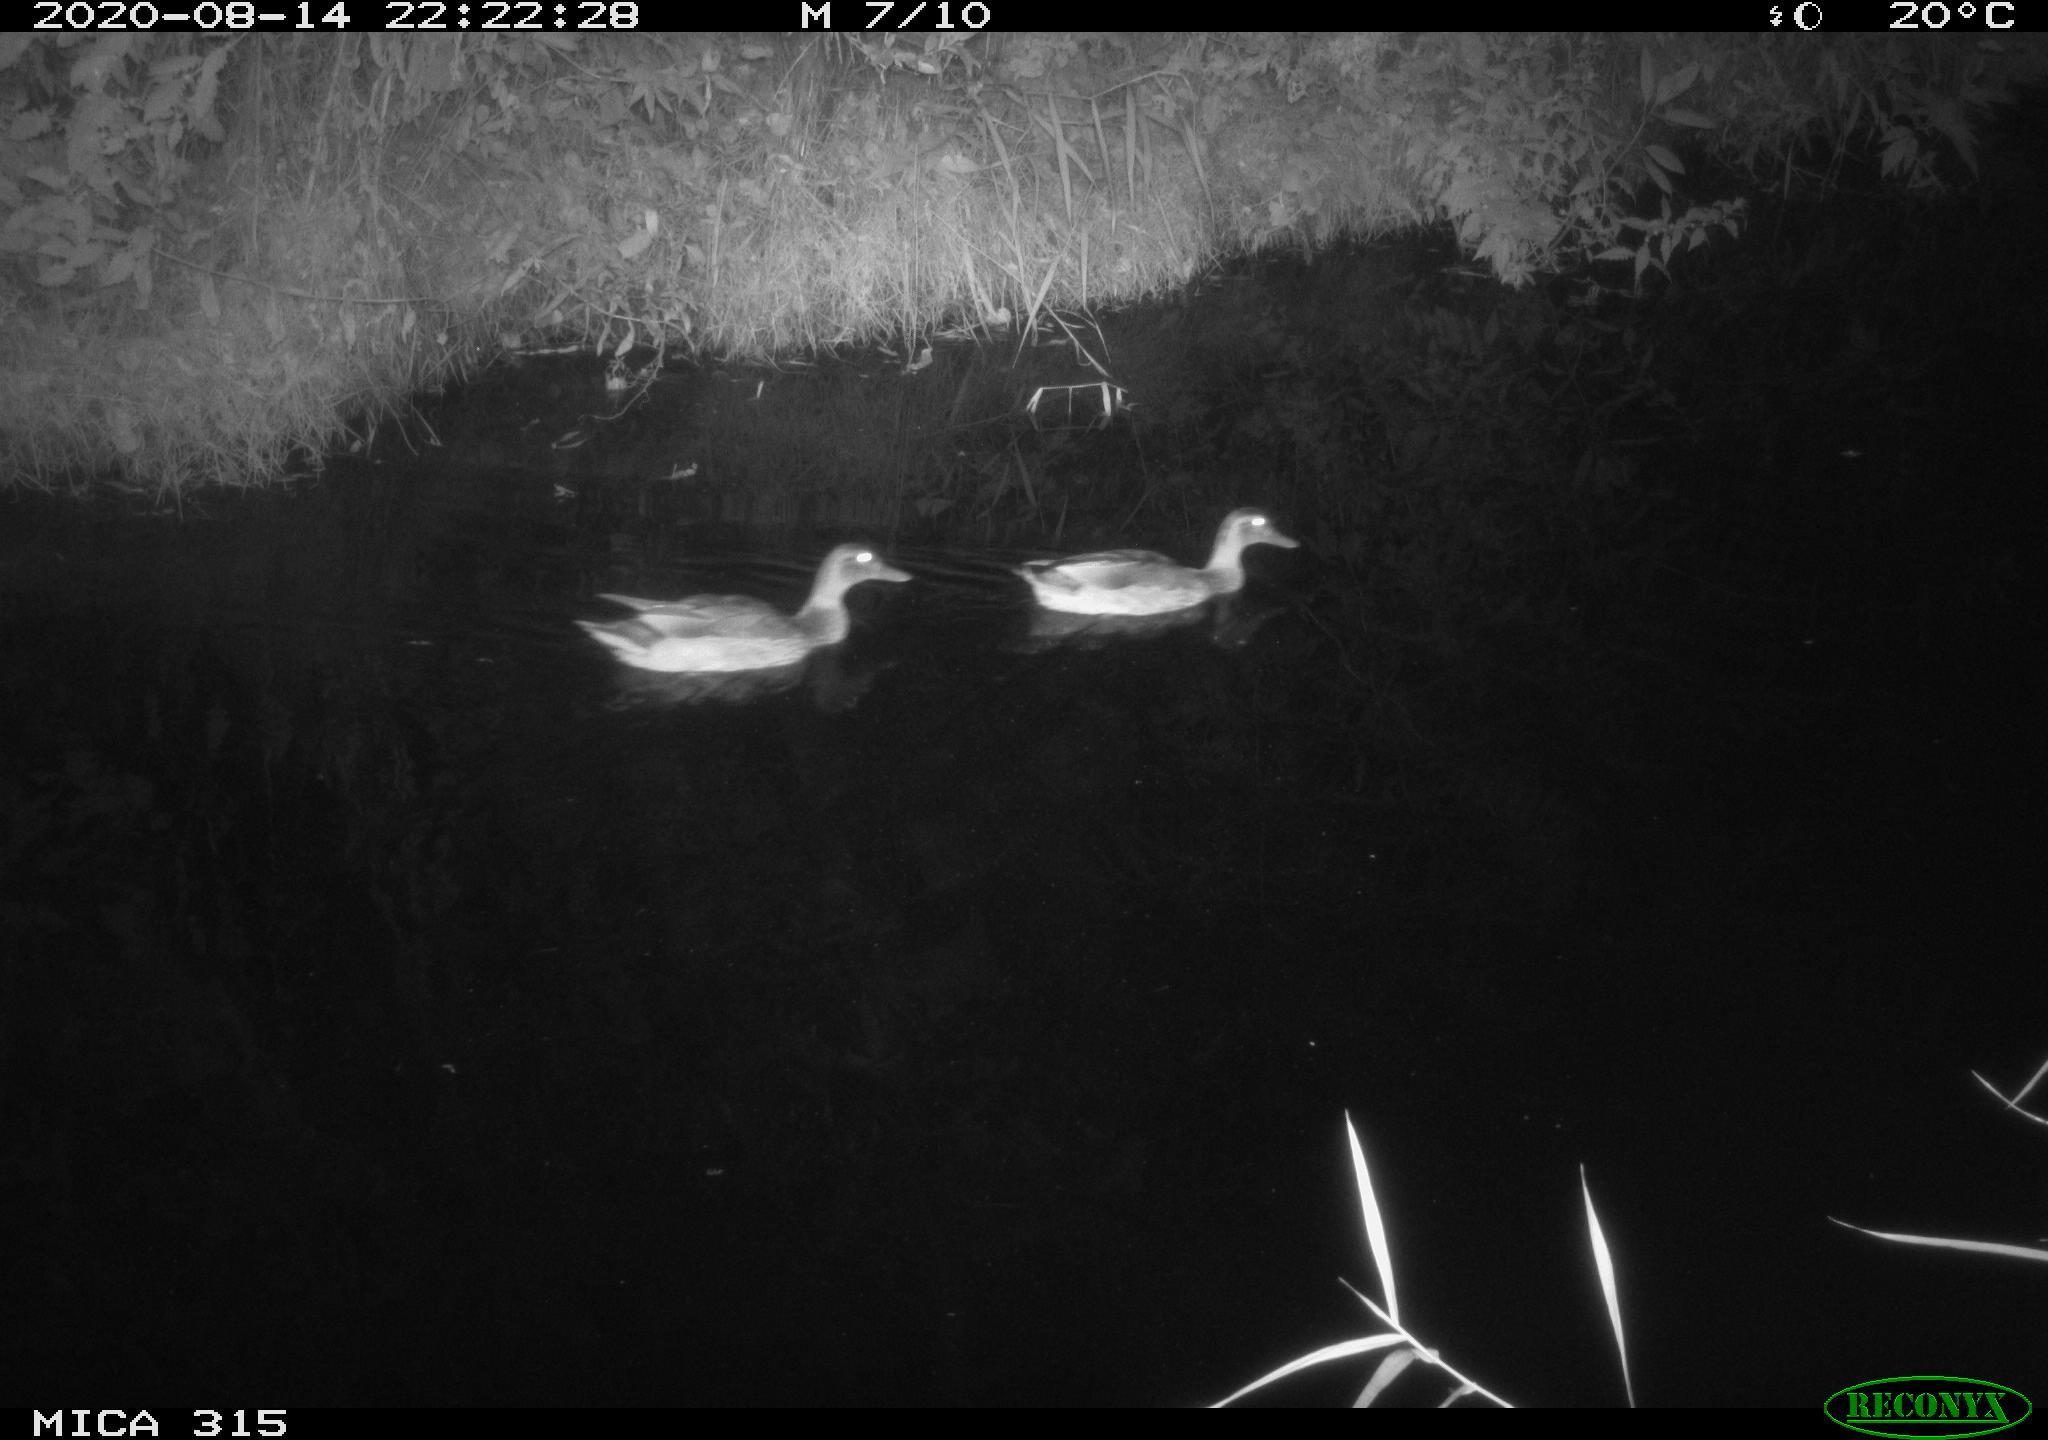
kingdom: Animalia
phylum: Chordata
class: Aves
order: Anseriformes
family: Anatidae
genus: Anas
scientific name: Anas platyrhynchos
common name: Mallard
